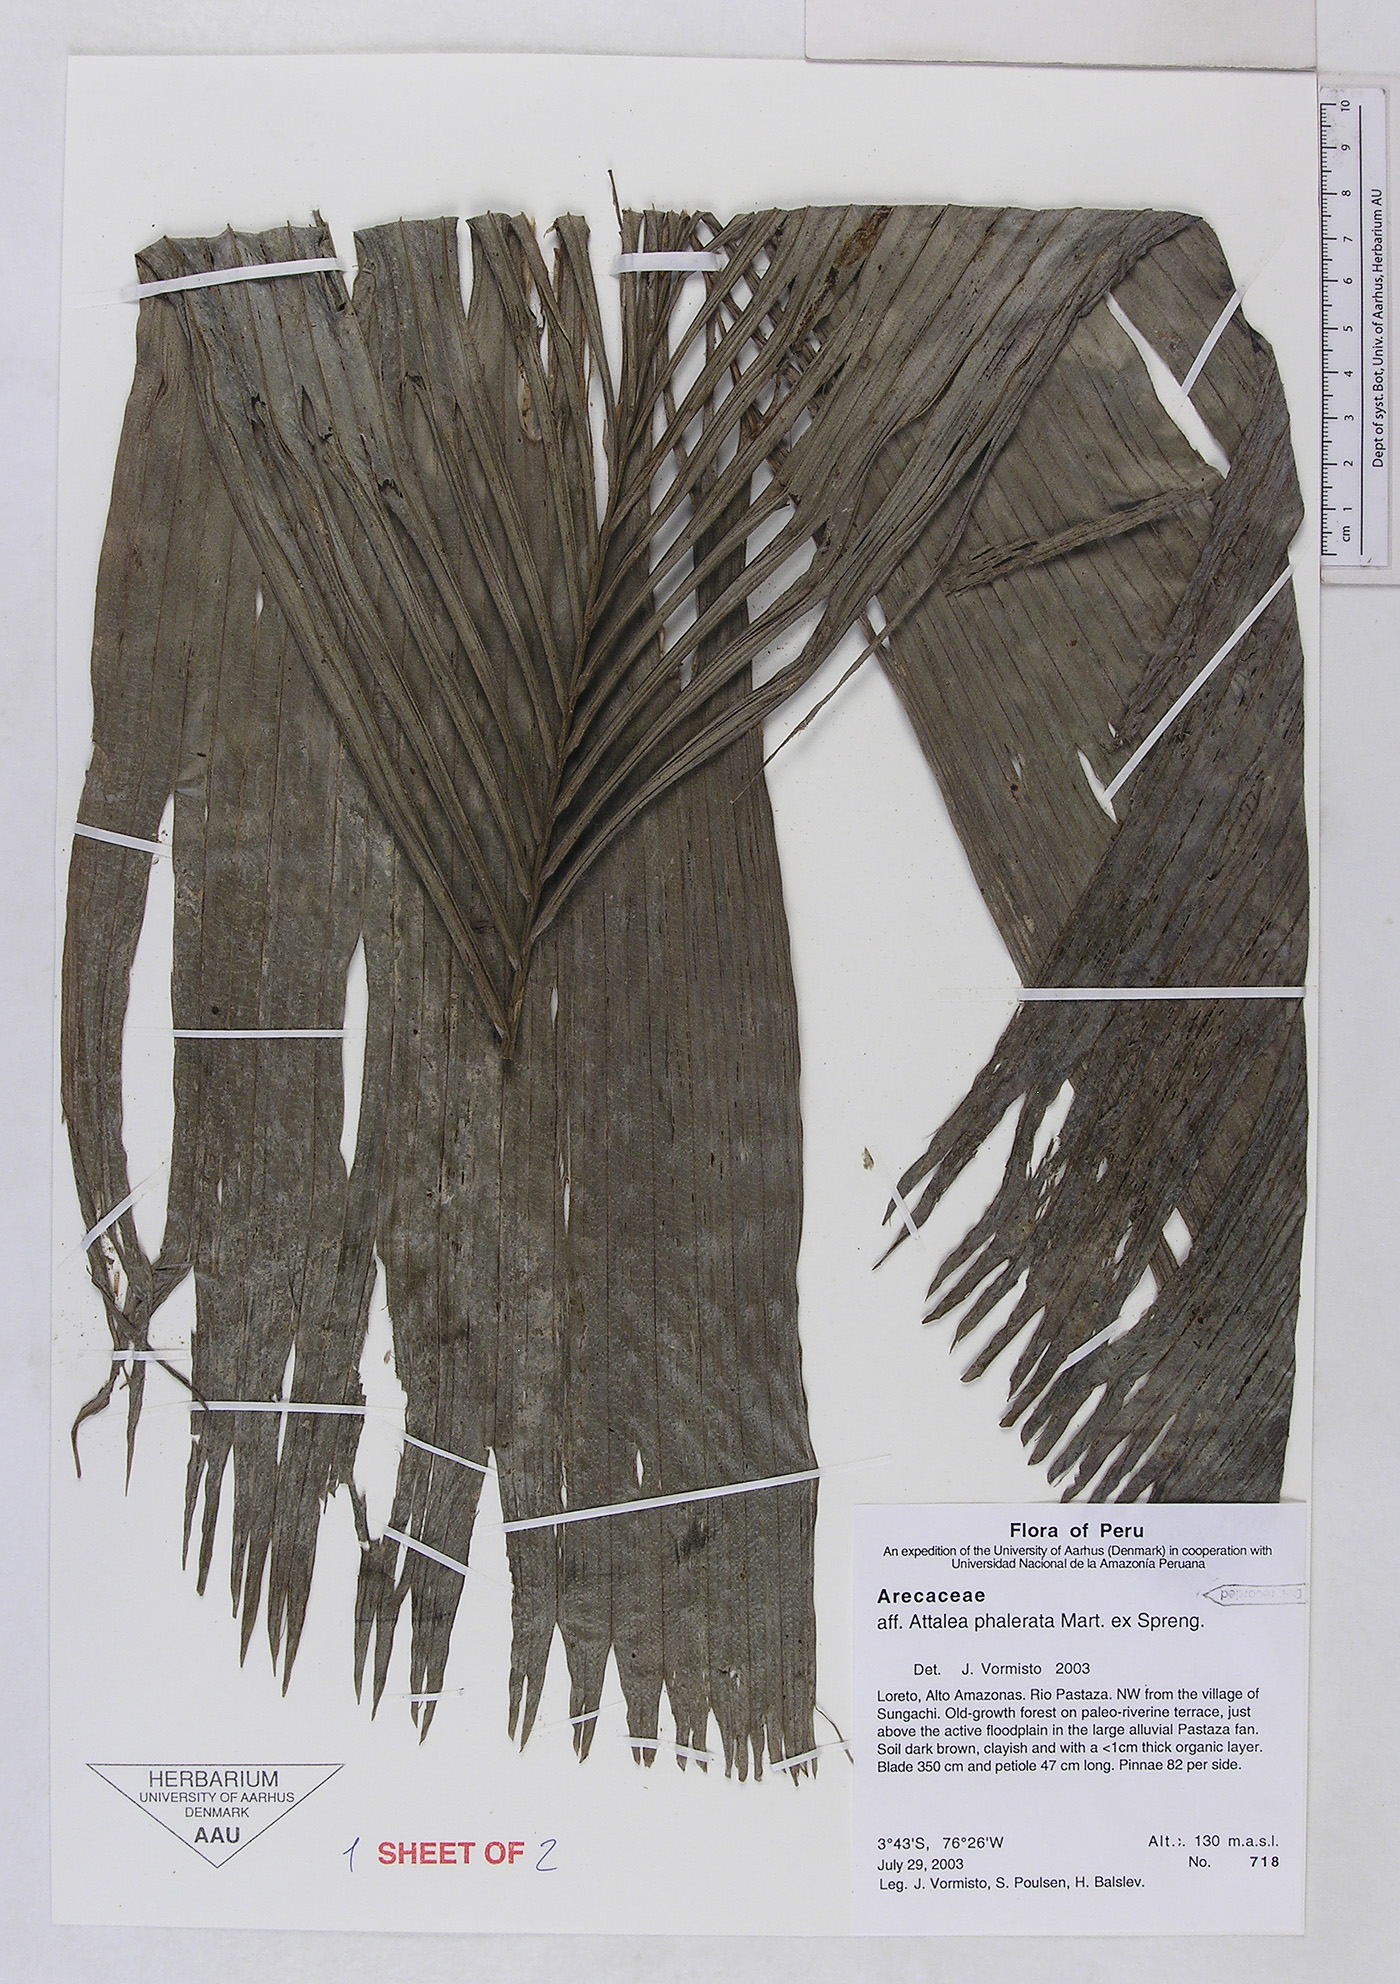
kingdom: Plantae
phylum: Tracheophyta
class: Liliopsida
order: Arecales
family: Arecaceae
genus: Attalea
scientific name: Attalea phalerata
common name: Urucuri palm
